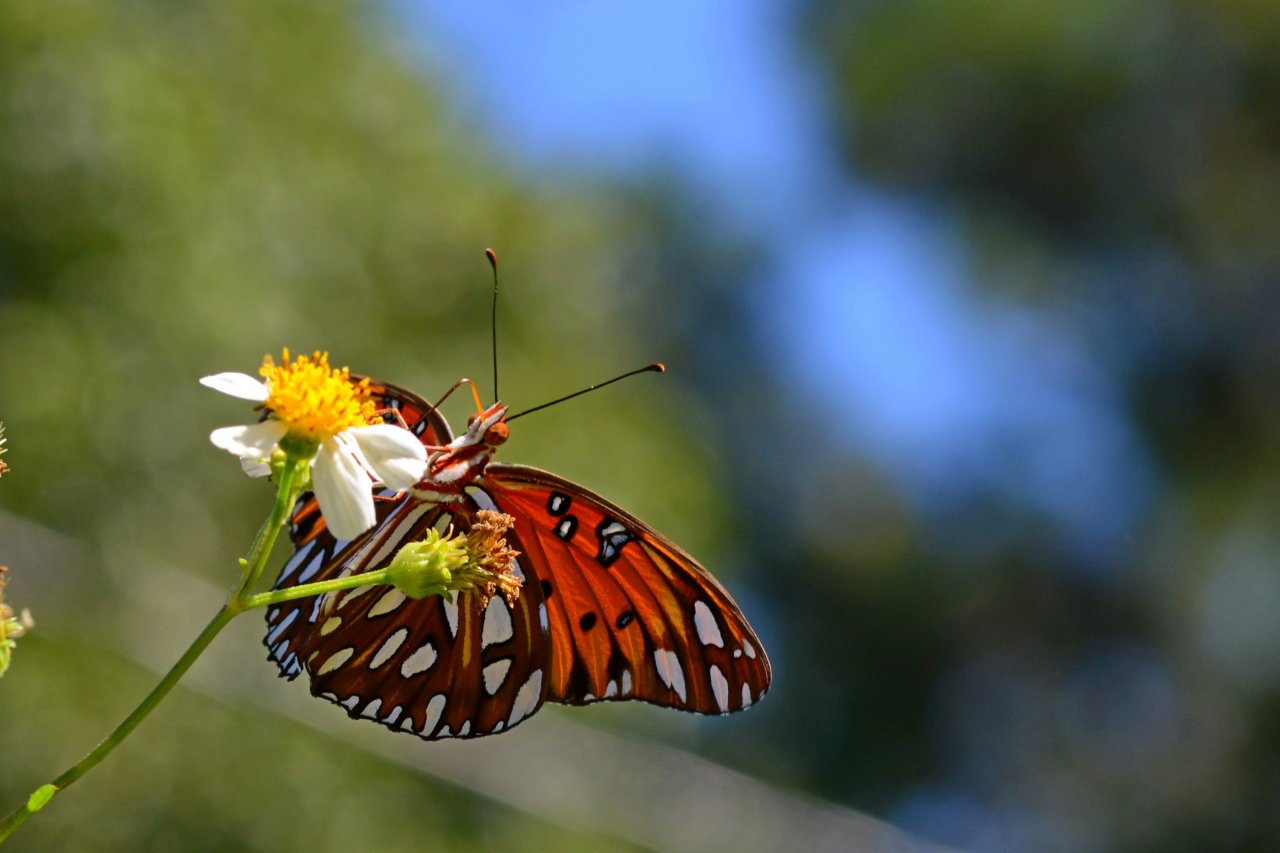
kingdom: Animalia
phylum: Arthropoda
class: Insecta
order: Lepidoptera
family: Nymphalidae
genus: Dione
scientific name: Dione vanillae
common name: Gulf Fritillary
